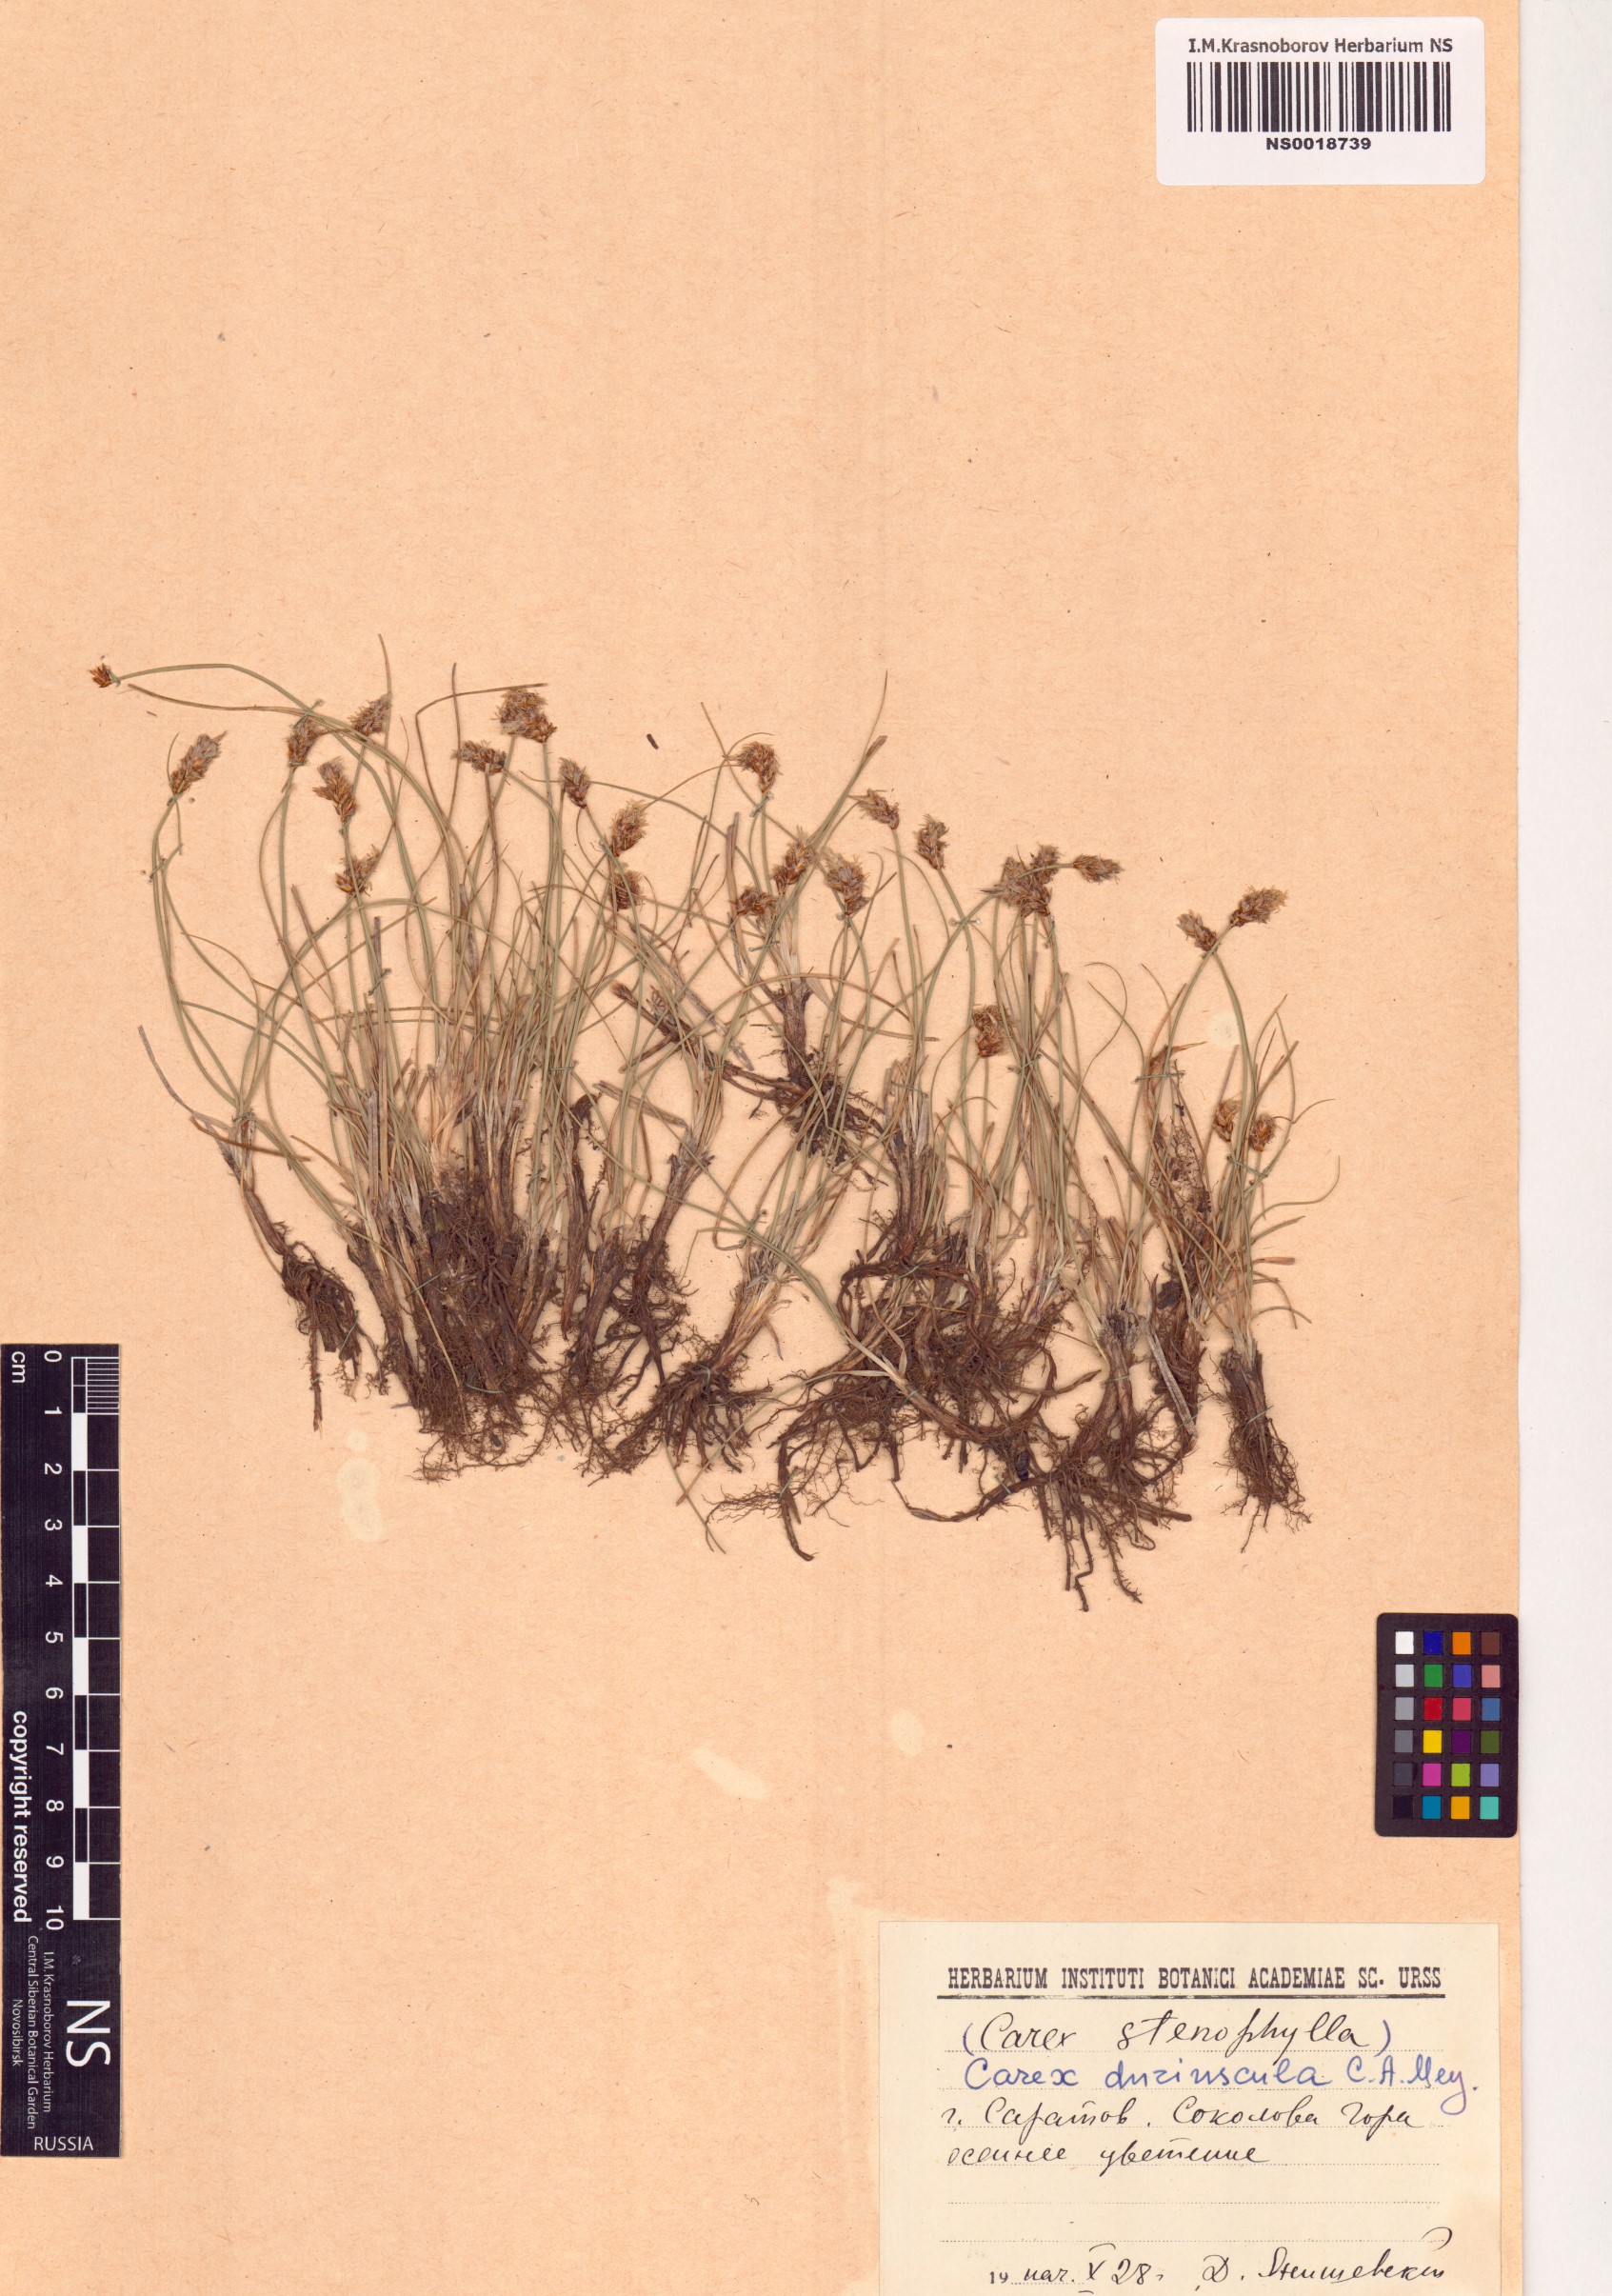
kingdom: Plantae
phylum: Tracheophyta
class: Liliopsida
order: Poales
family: Cyperaceae
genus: Carex
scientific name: Carex duriuscula
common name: Involute-leaved sedge
